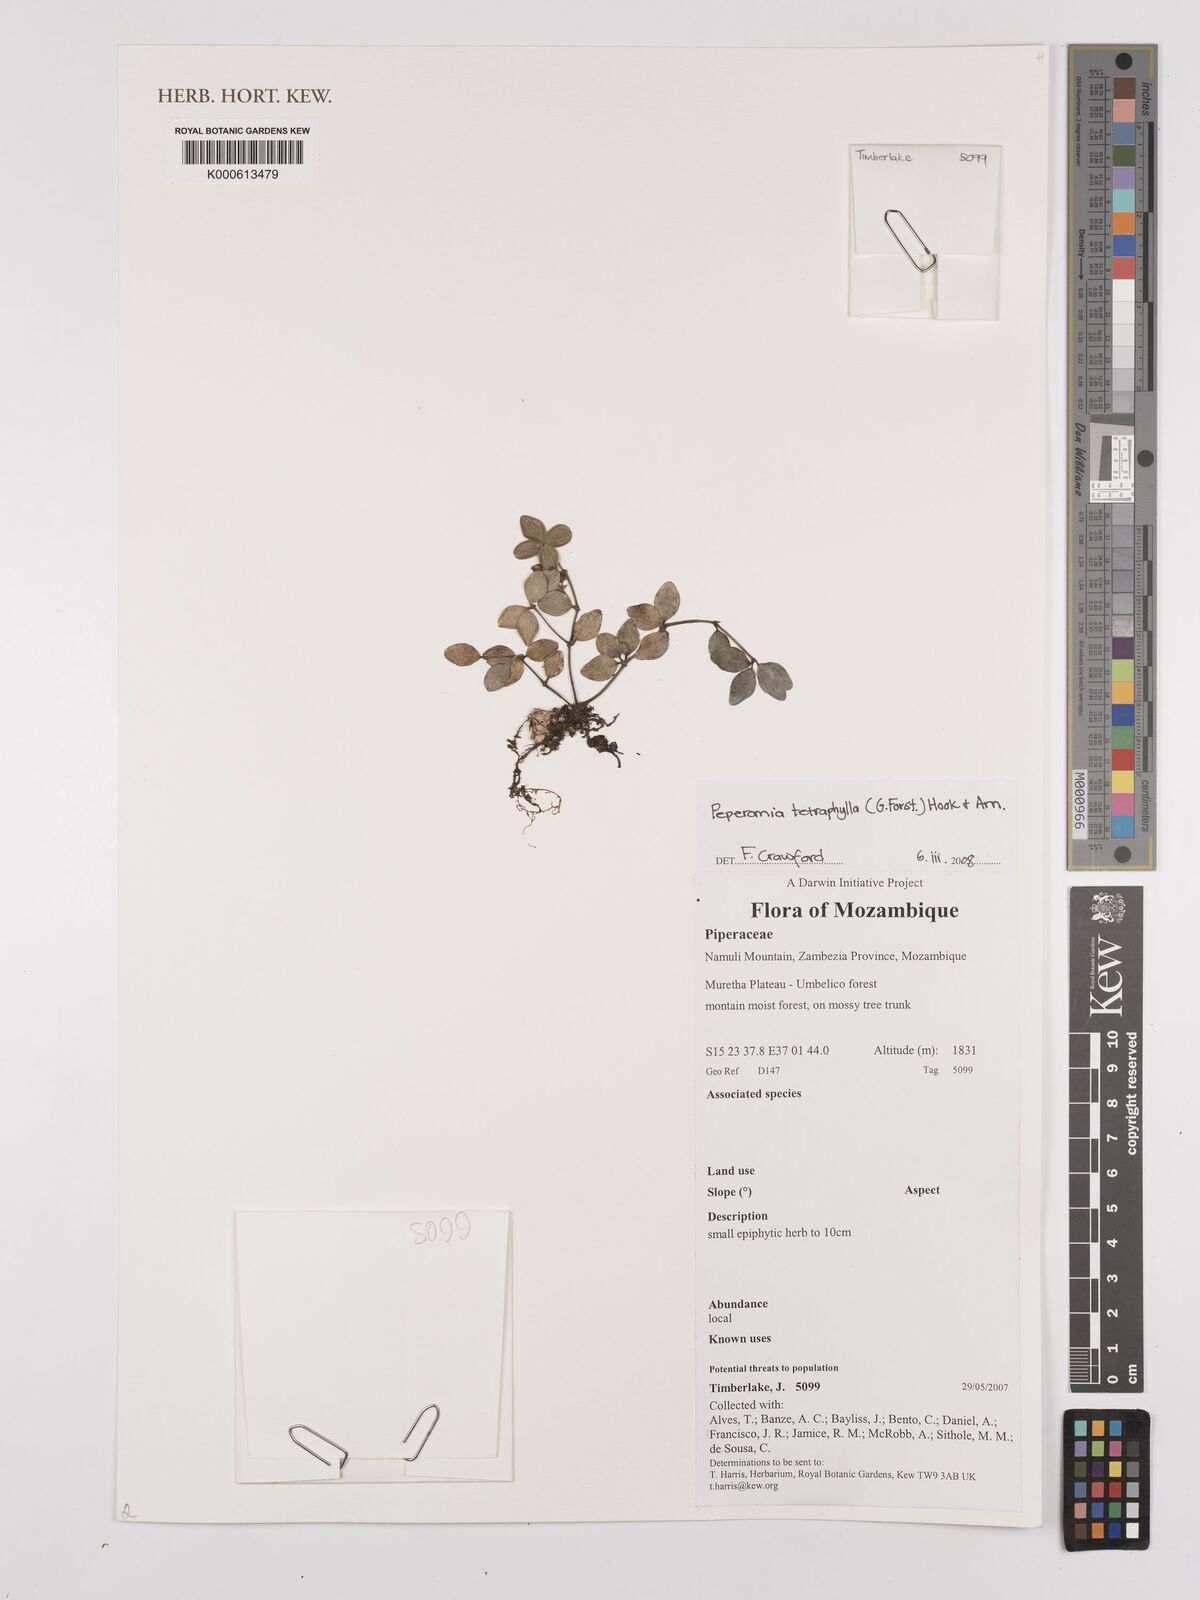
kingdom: Plantae
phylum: Tracheophyta
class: Magnoliopsida
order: Piperales
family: Piperaceae
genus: Peperomia
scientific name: Peperomia tetraphylla
